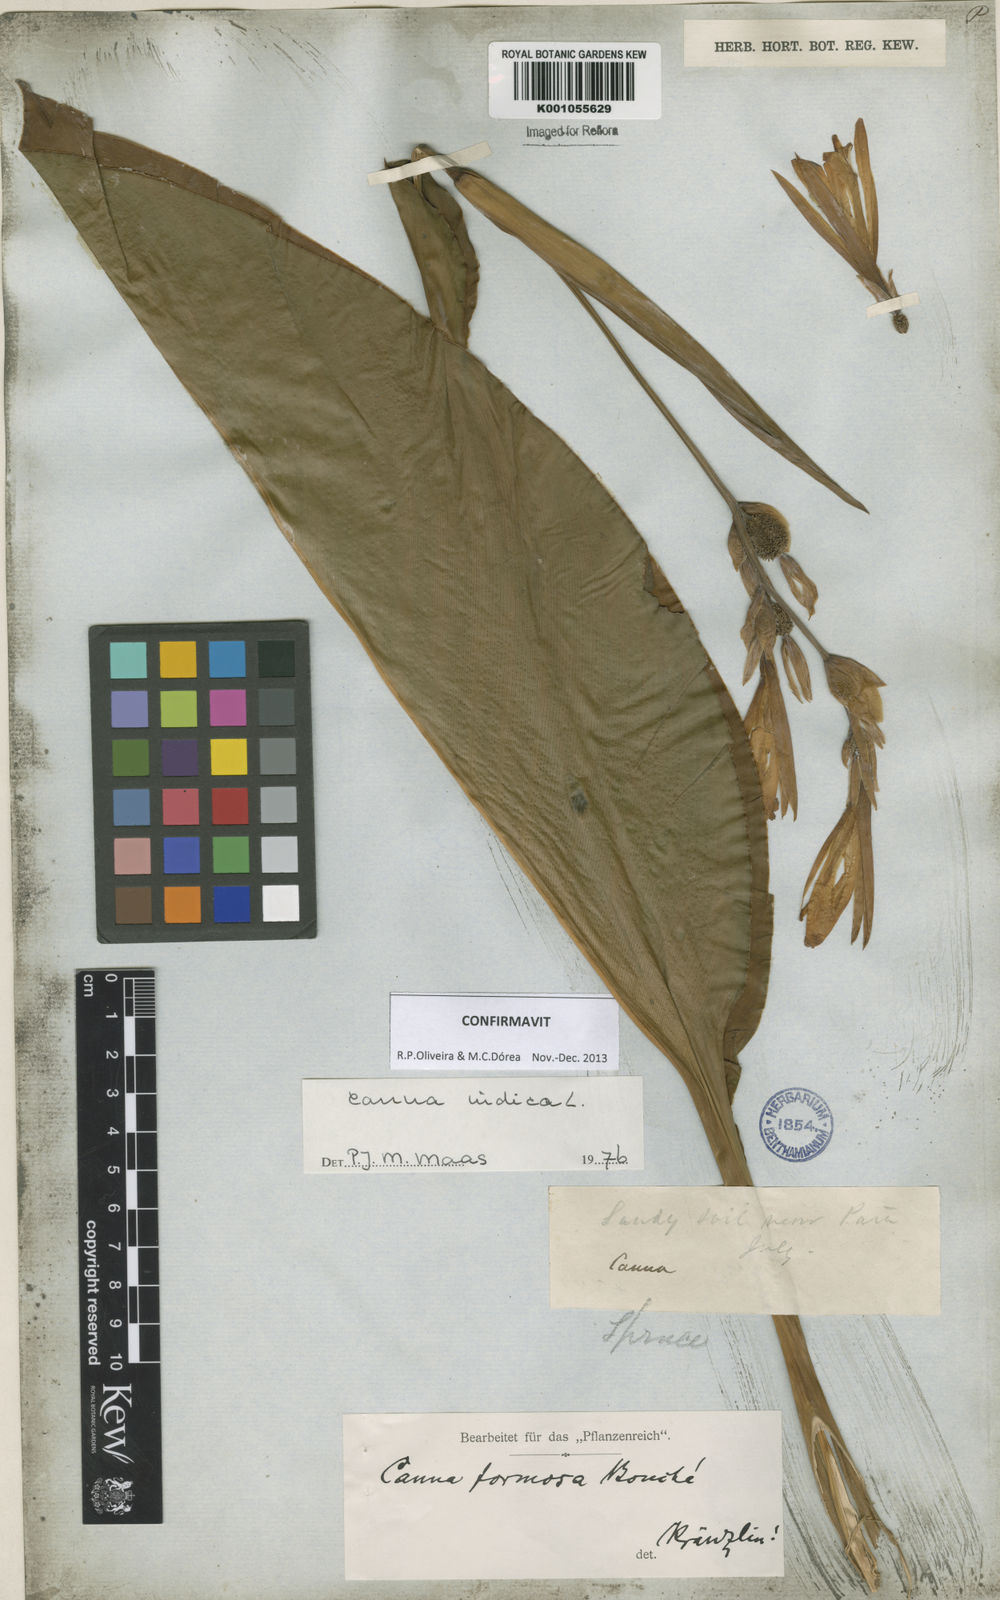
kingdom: Plantae
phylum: Tracheophyta
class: Liliopsida
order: Zingiberales
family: Cannaceae
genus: Canna
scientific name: Canna indica
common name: Indian shot
